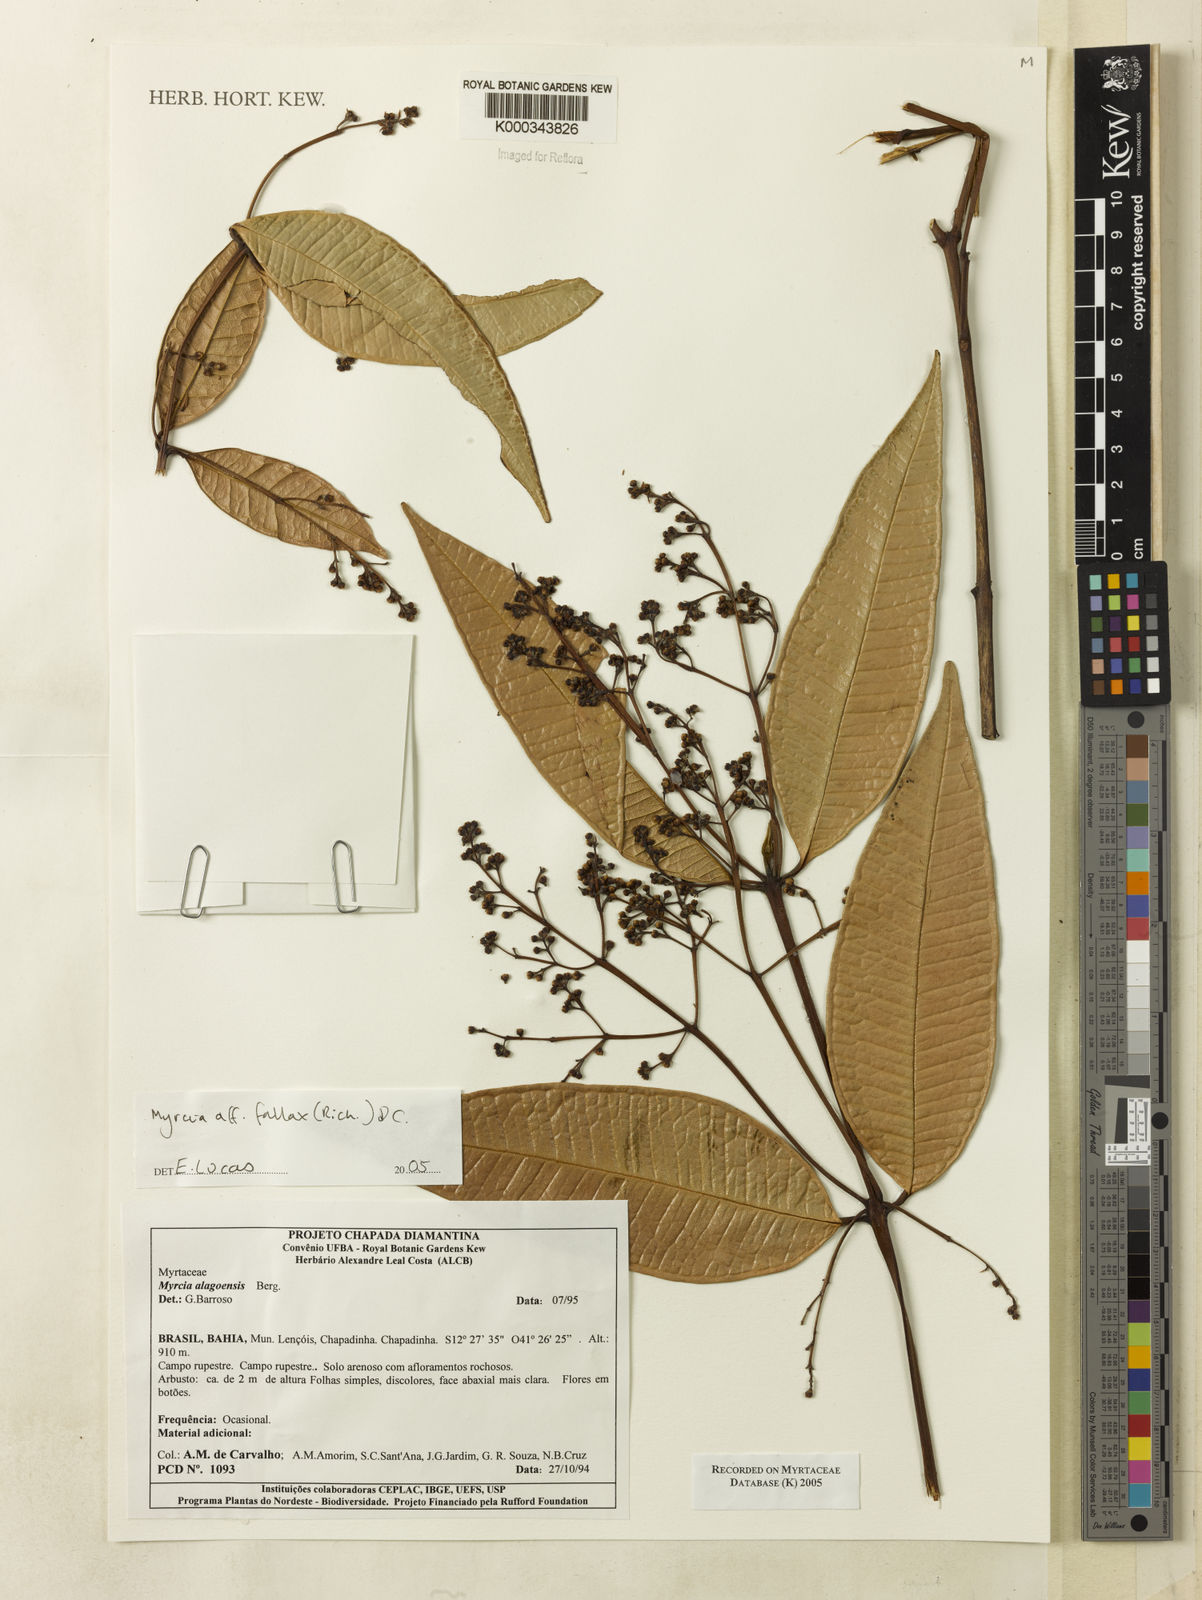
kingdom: Plantae
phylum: Tracheophyta
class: Magnoliopsida
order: Myrtales
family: Myrtaceae
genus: Myrcia
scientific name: Myrcia splendens
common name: Surinam cherry
